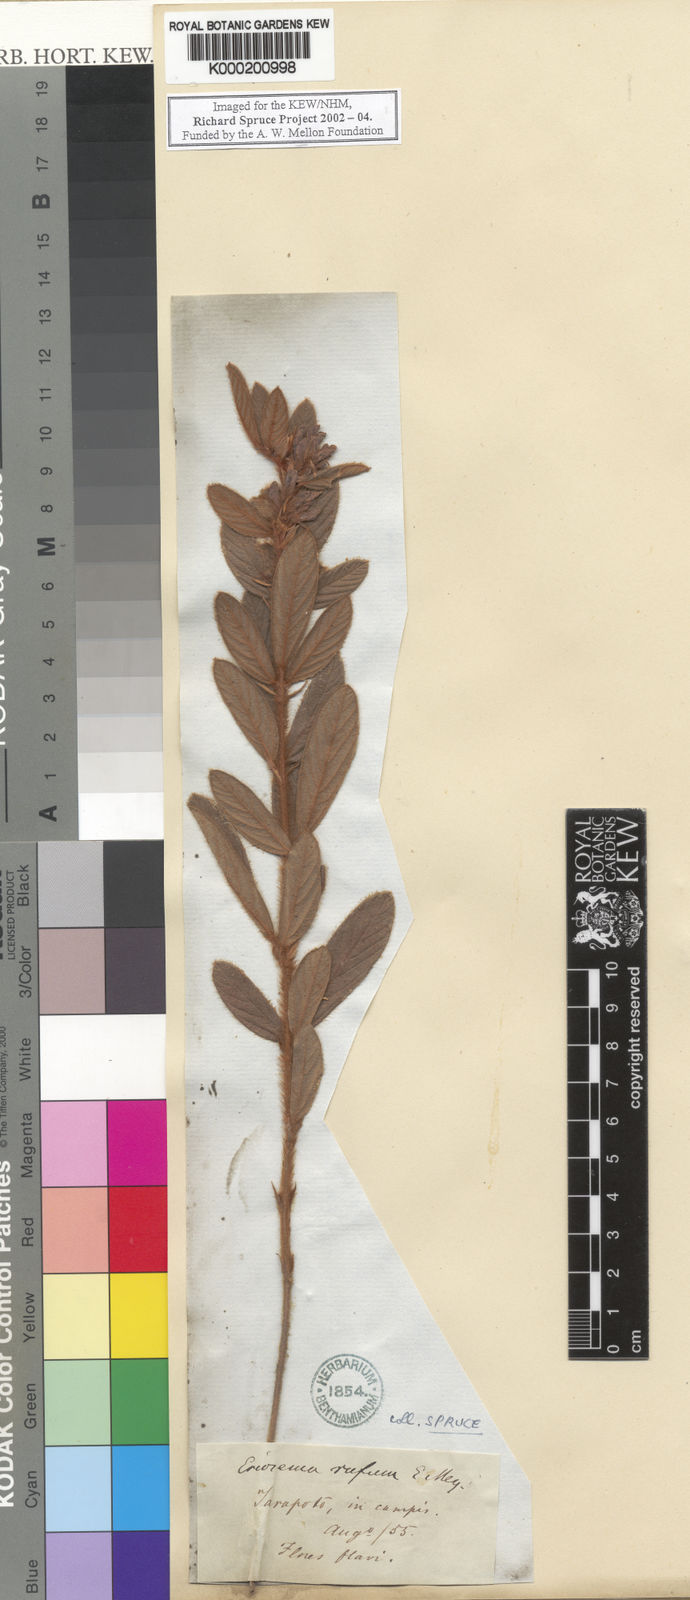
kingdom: Plantae
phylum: Tracheophyta
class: Magnoliopsida
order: Fabales
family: Fabaceae
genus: Eriosema
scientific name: Eriosema rufum
